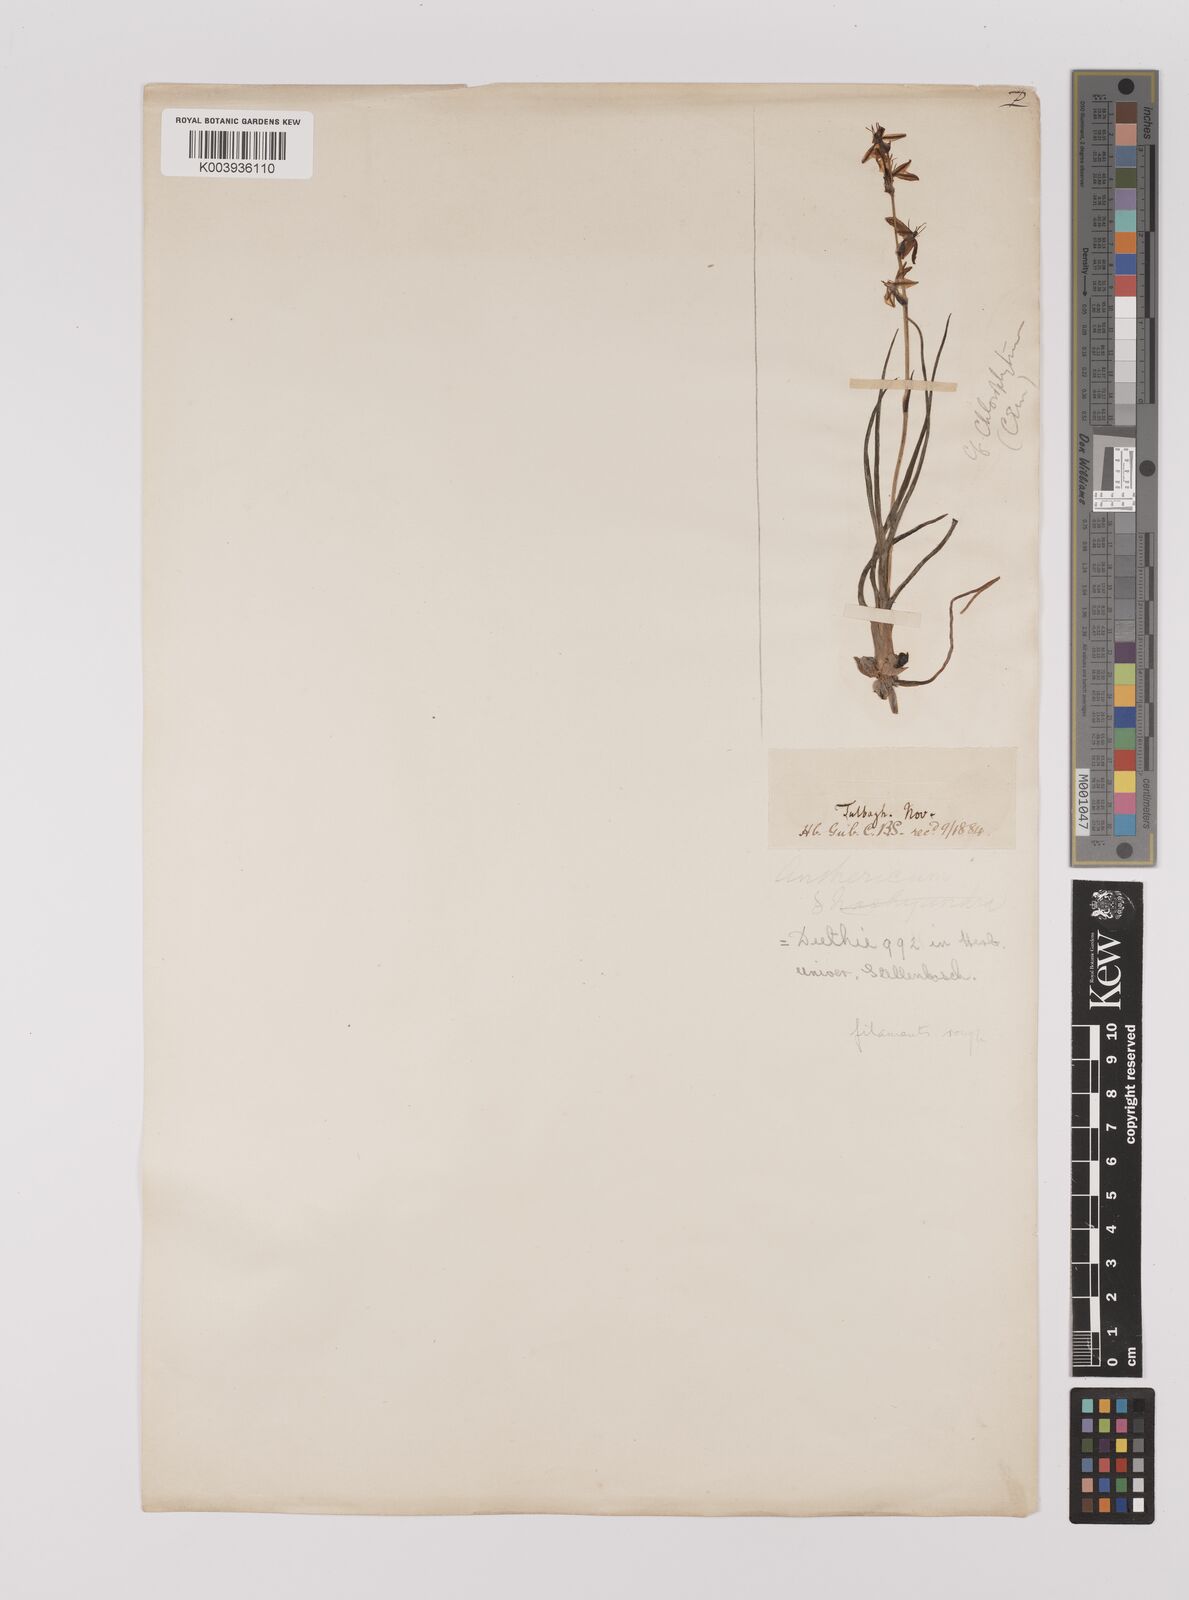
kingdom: Plantae
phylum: Tracheophyta
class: Liliopsida
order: Asparagales
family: Asparagaceae
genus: Chlorophytum
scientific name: Chlorophytum graminifolium
